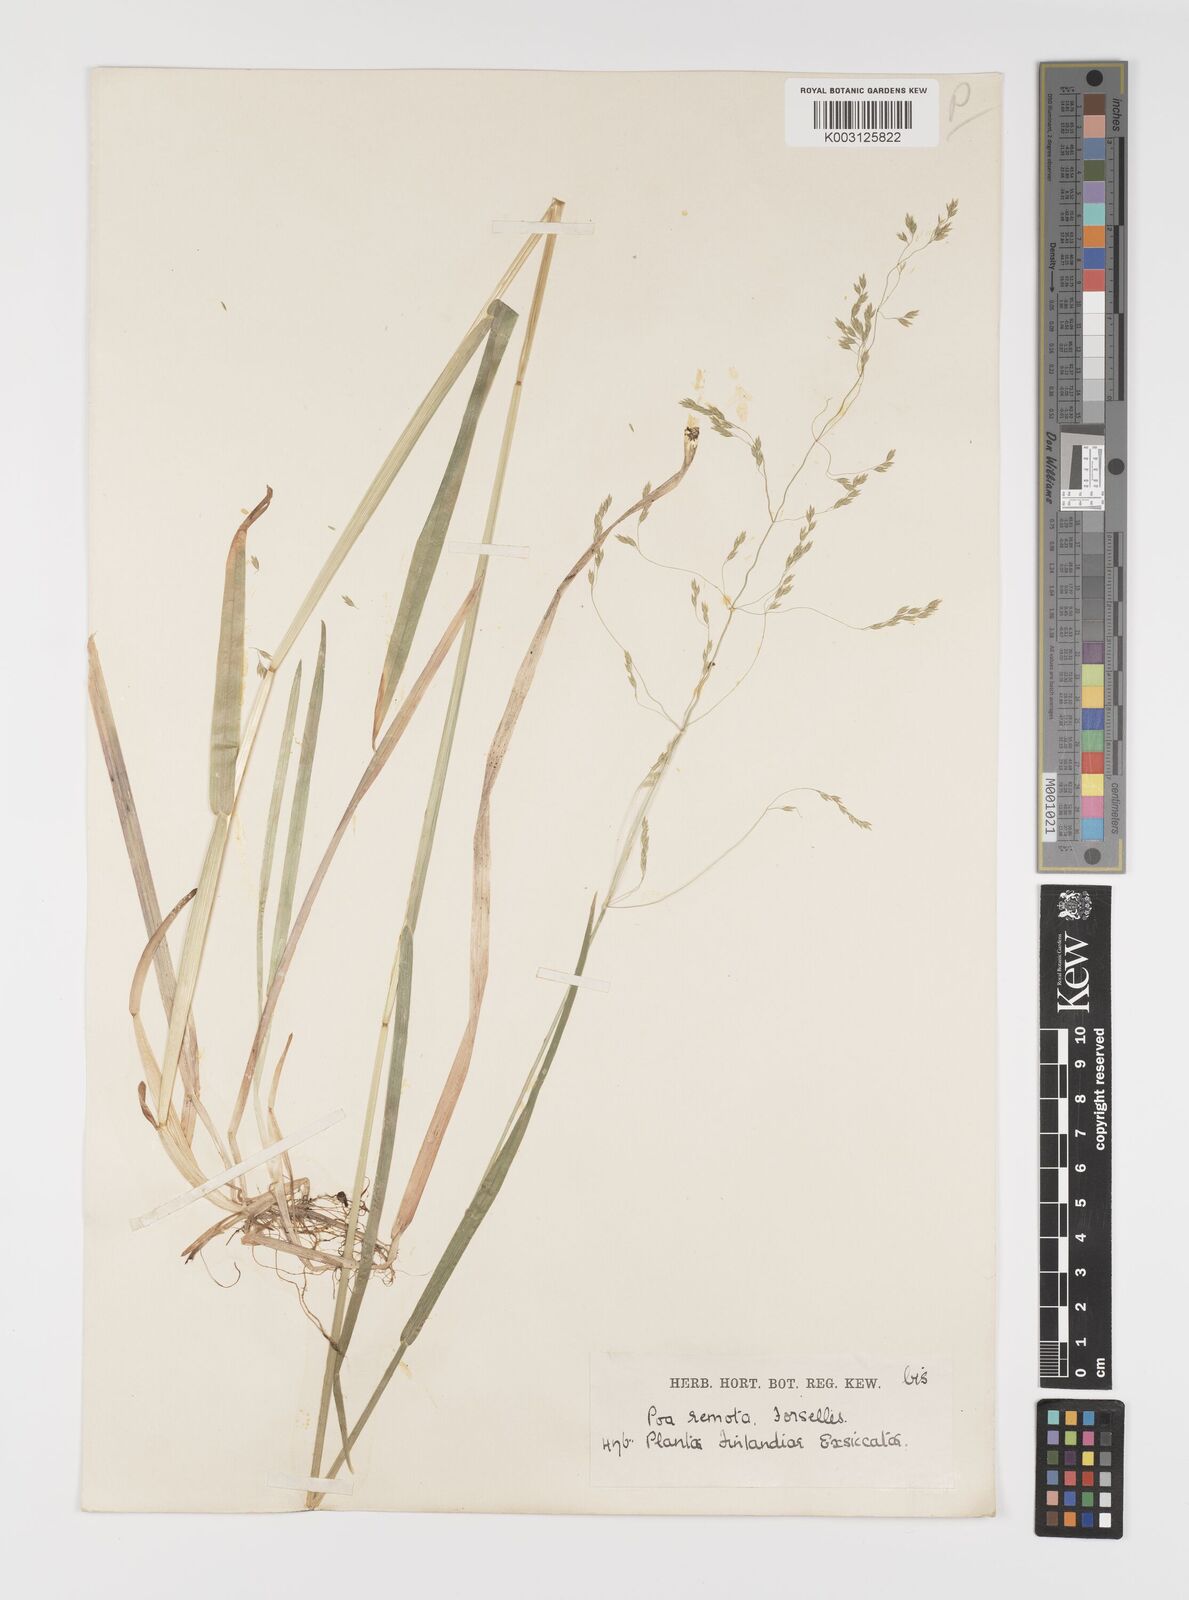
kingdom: Plantae
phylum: Tracheophyta
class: Liliopsida
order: Poales
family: Poaceae
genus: Poa
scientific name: Poa remota
